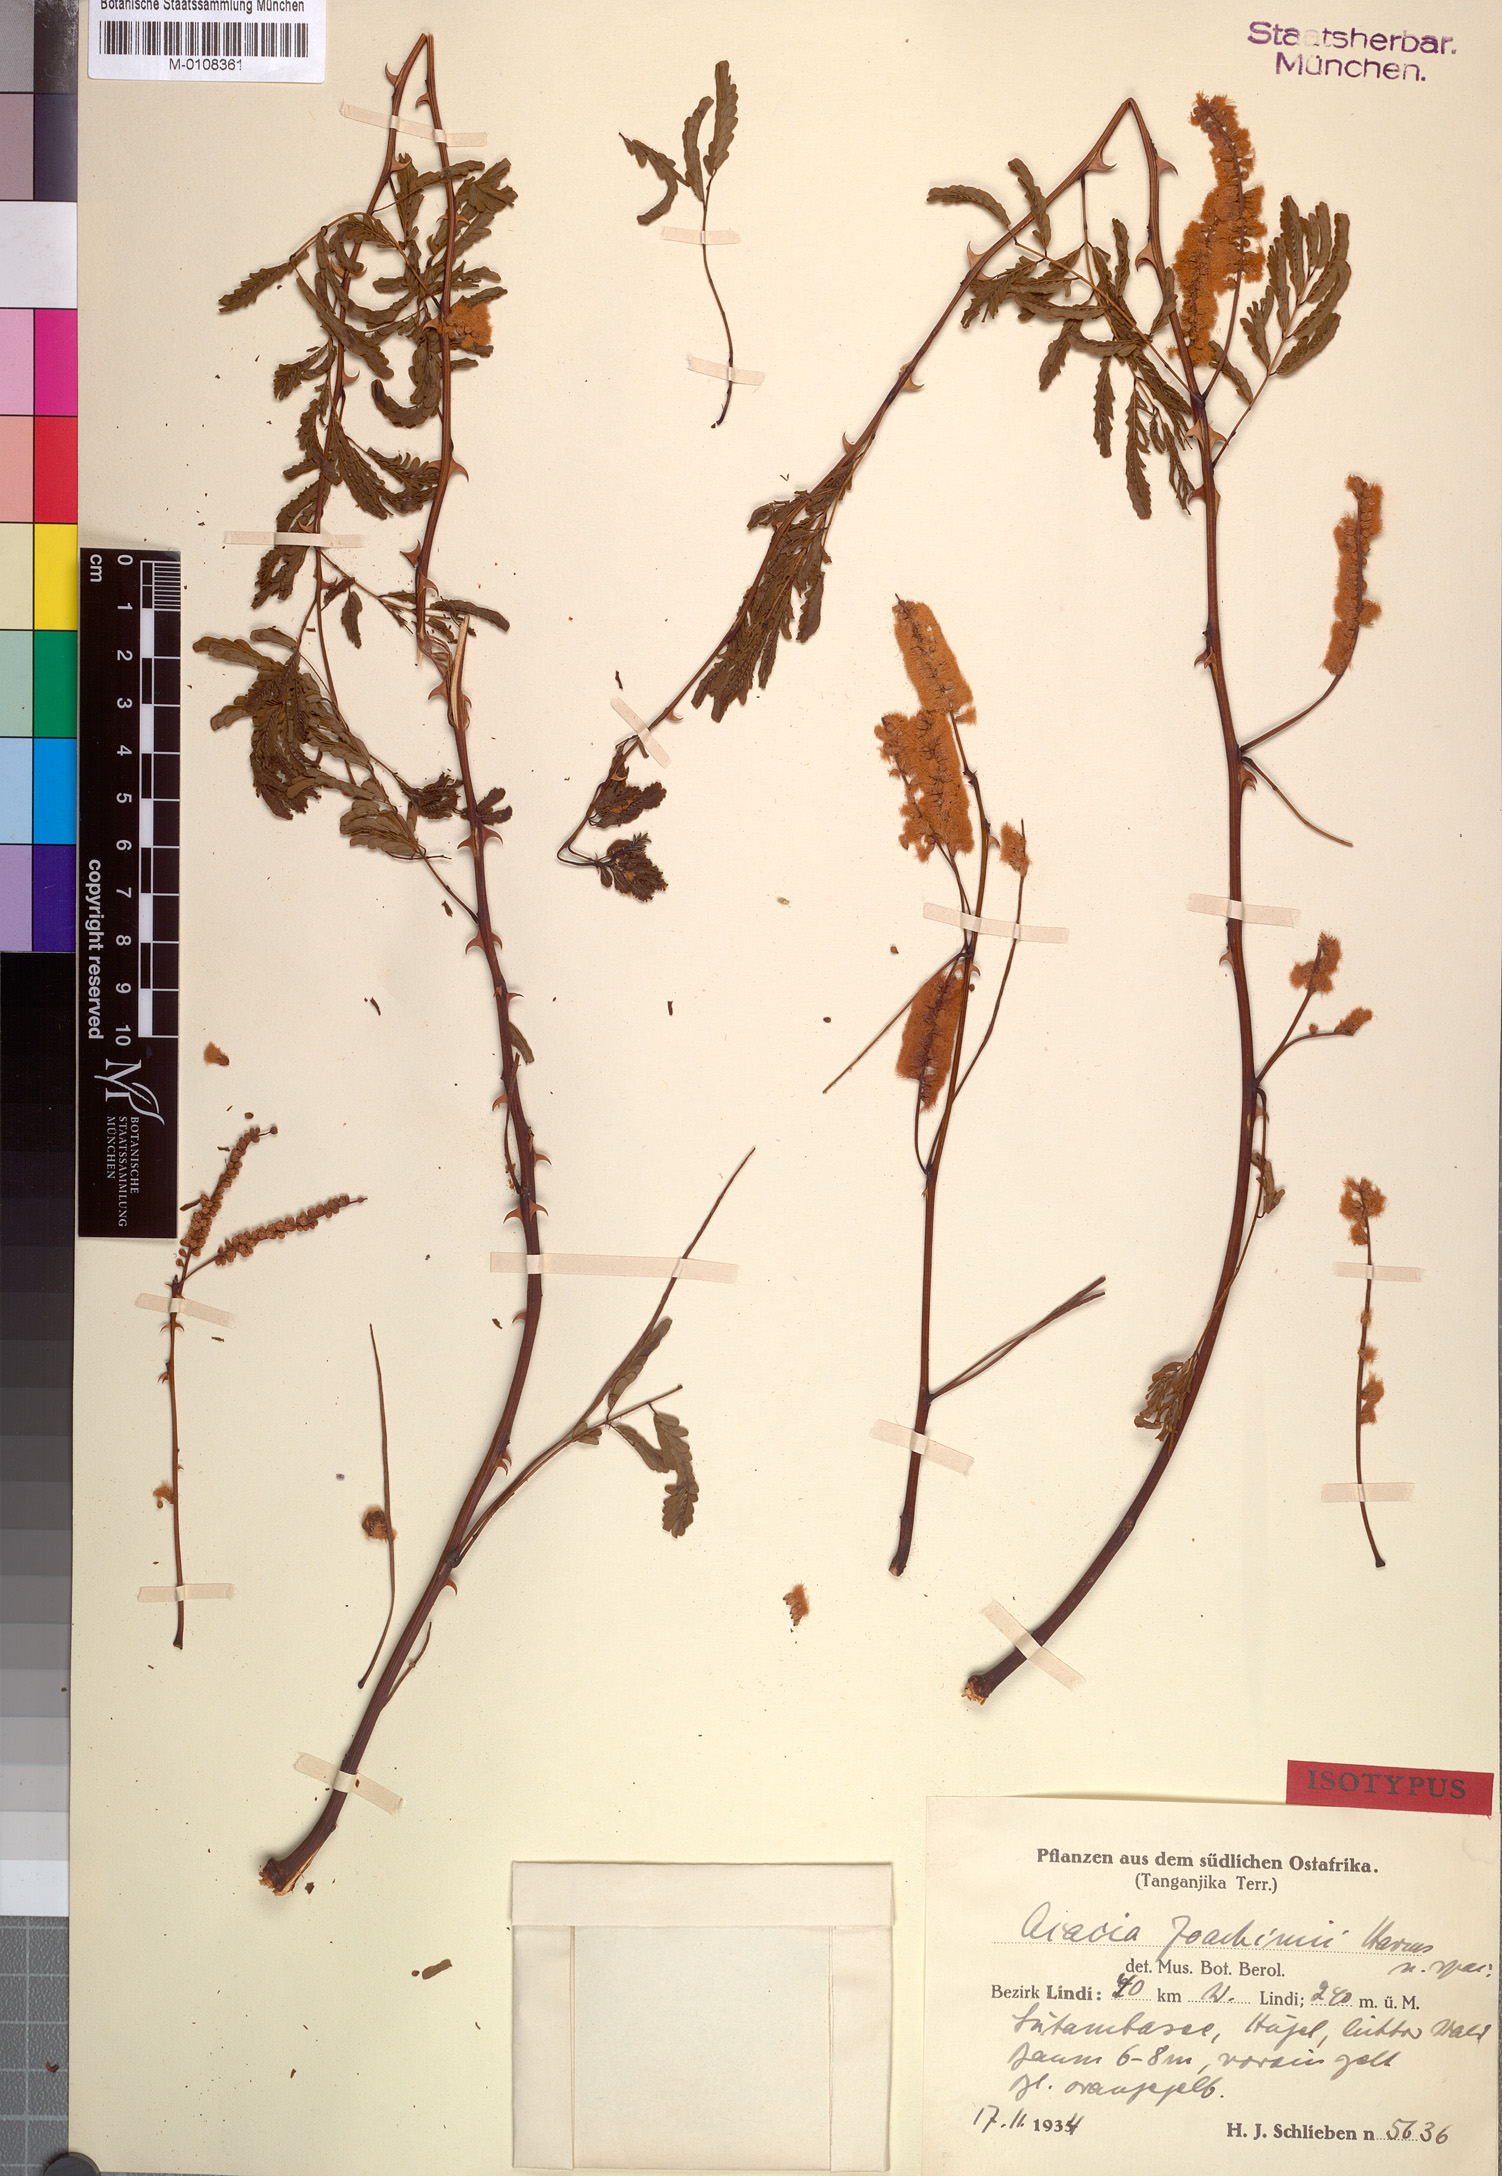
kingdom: Plantae
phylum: Tracheophyta
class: Magnoliopsida
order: Fabales
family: Fabaceae
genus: Senegalia
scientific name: Senegalia goetzei
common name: Purplepod acacia
